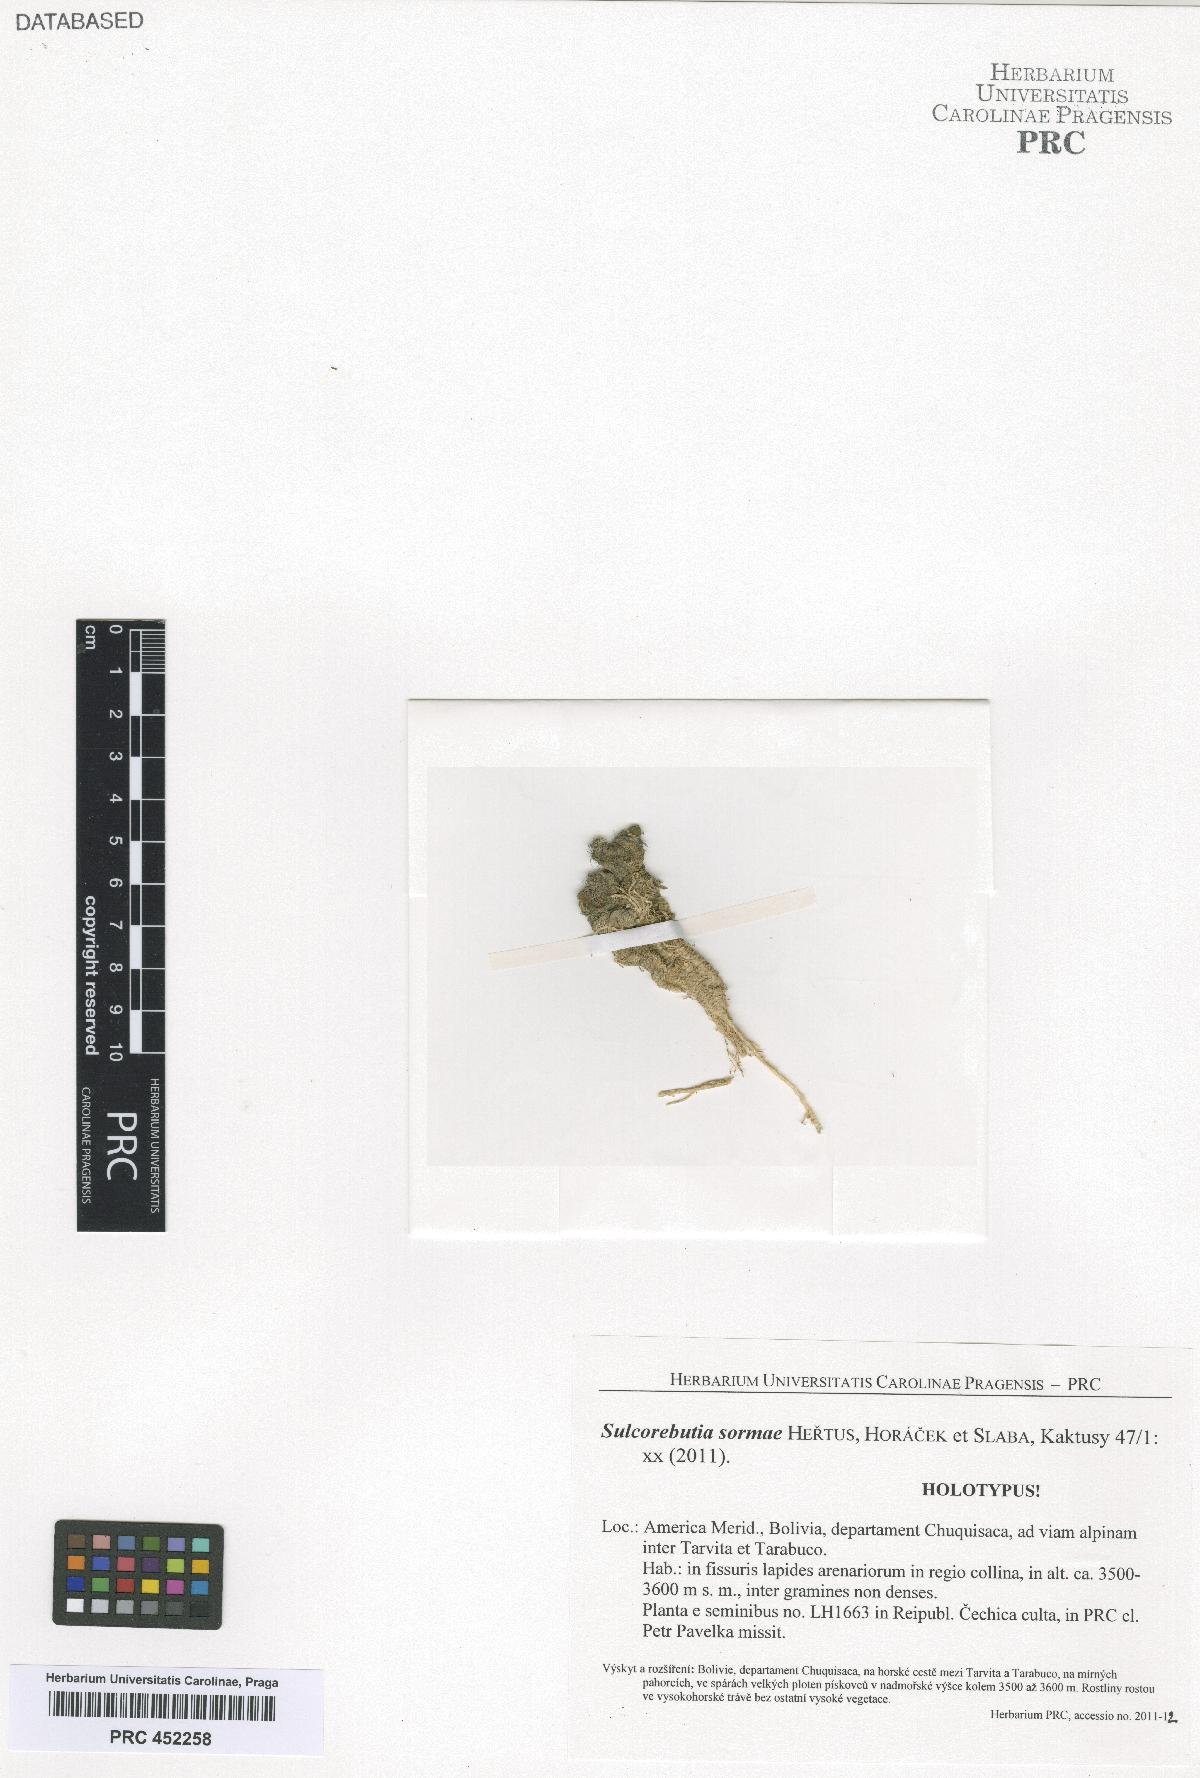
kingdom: Plantae
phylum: Tracheophyta
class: Magnoliopsida
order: Caryophyllales
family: Cactaceae
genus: Weingartia
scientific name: Weingartia azurduyensis
